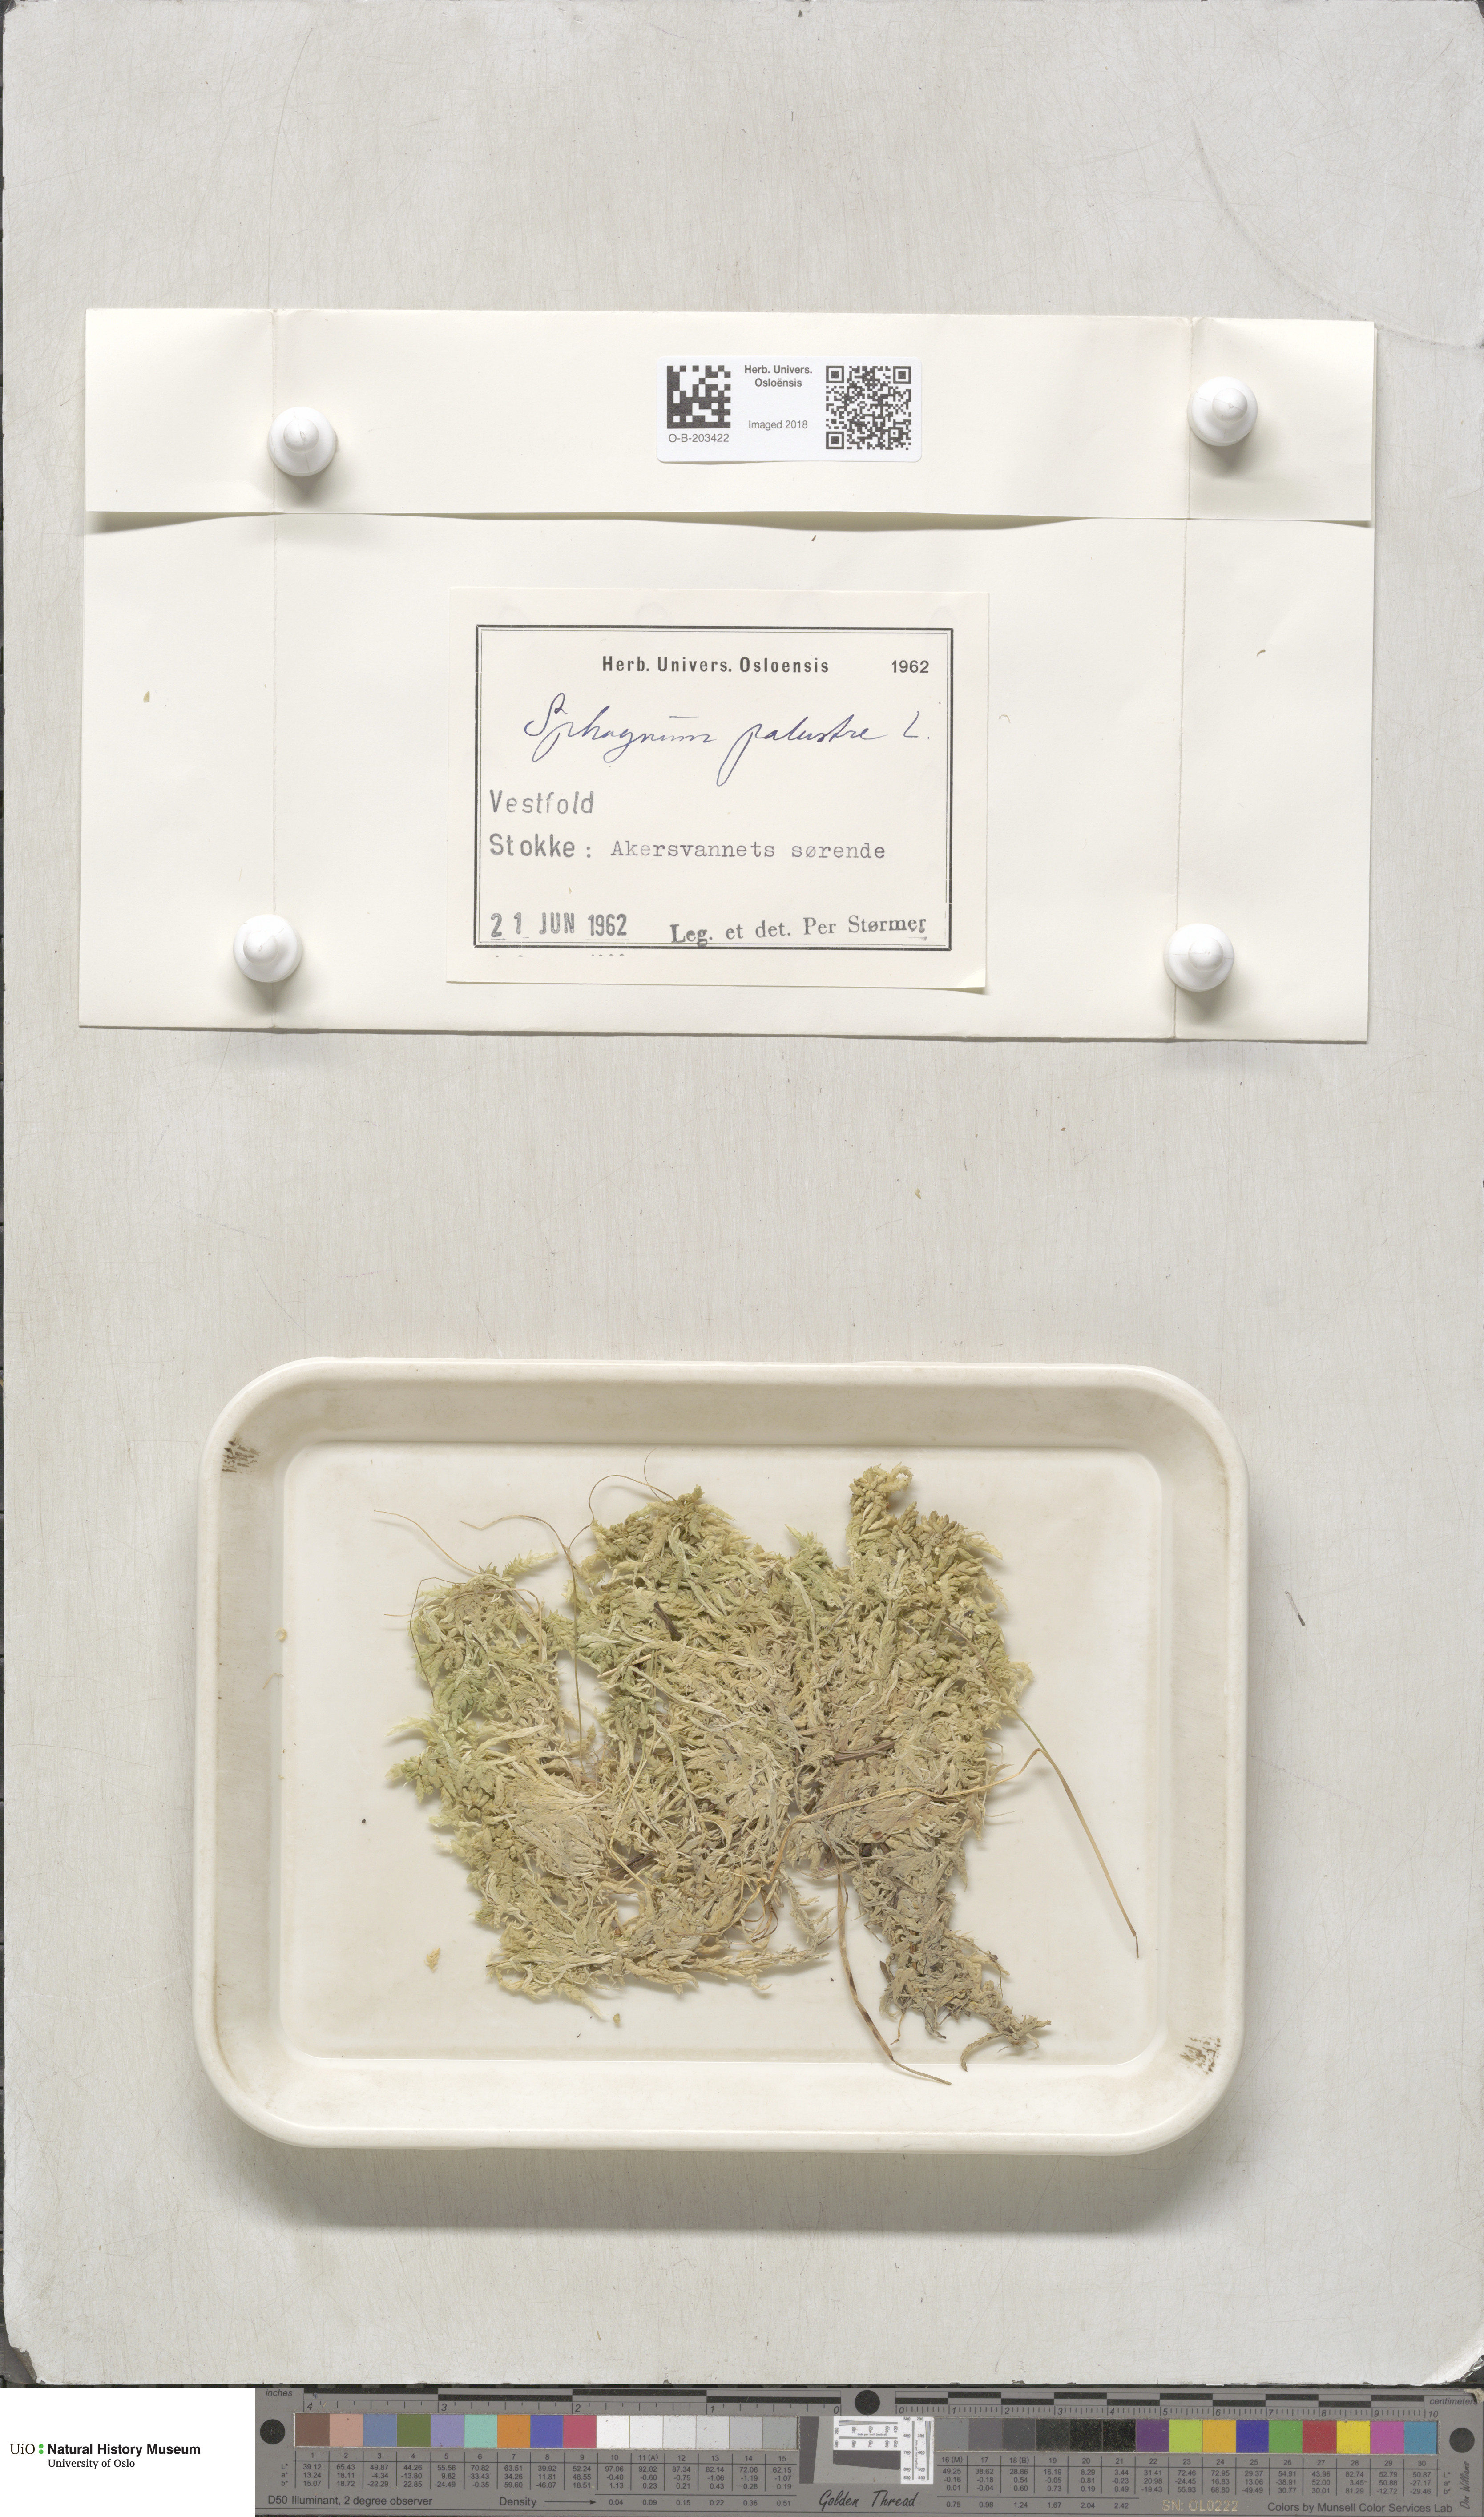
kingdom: Plantae
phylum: Bryophyta
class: Sphagnopsida
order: Sphagnales
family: Sphagnaceae
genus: Sphagnum
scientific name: Sphagnum palustre
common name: Blunt-leaved bog-moss
